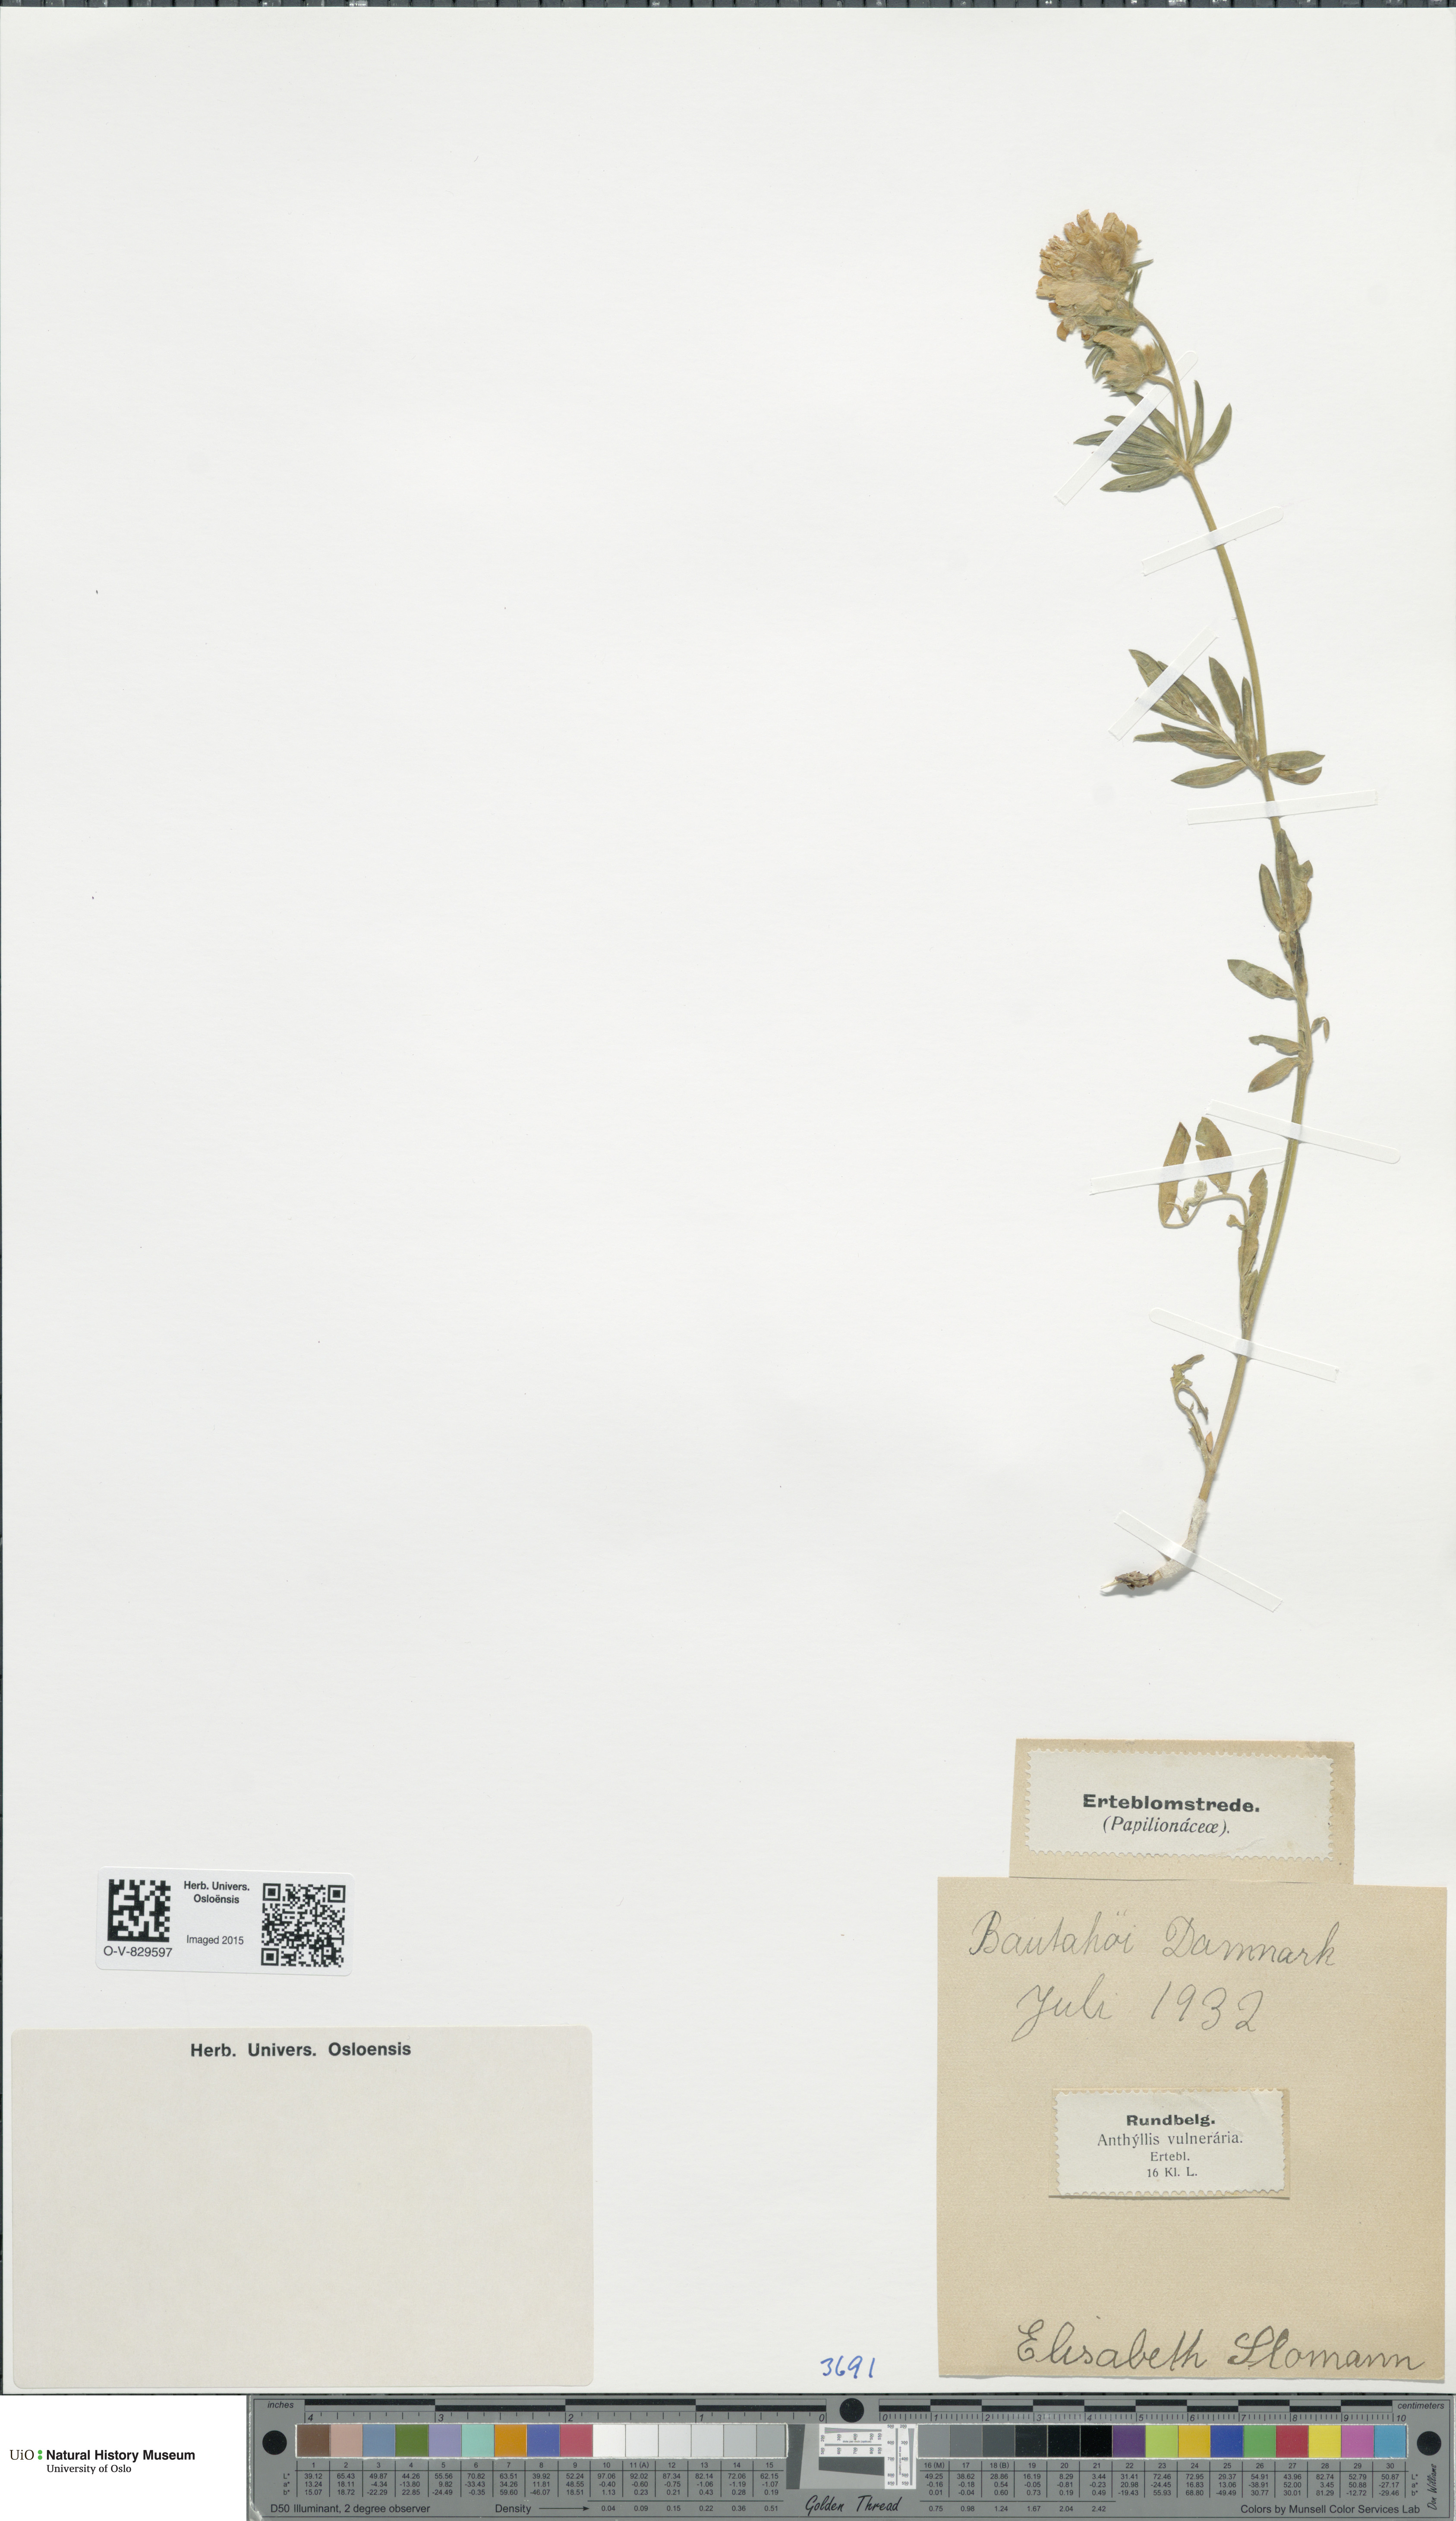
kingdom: Plantae
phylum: Tracheophyta
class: Magnoliopsida
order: Fabales
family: Fabaceae
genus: Anthyllis
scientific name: Anthyllis vulneraria
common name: Kidney vetch
